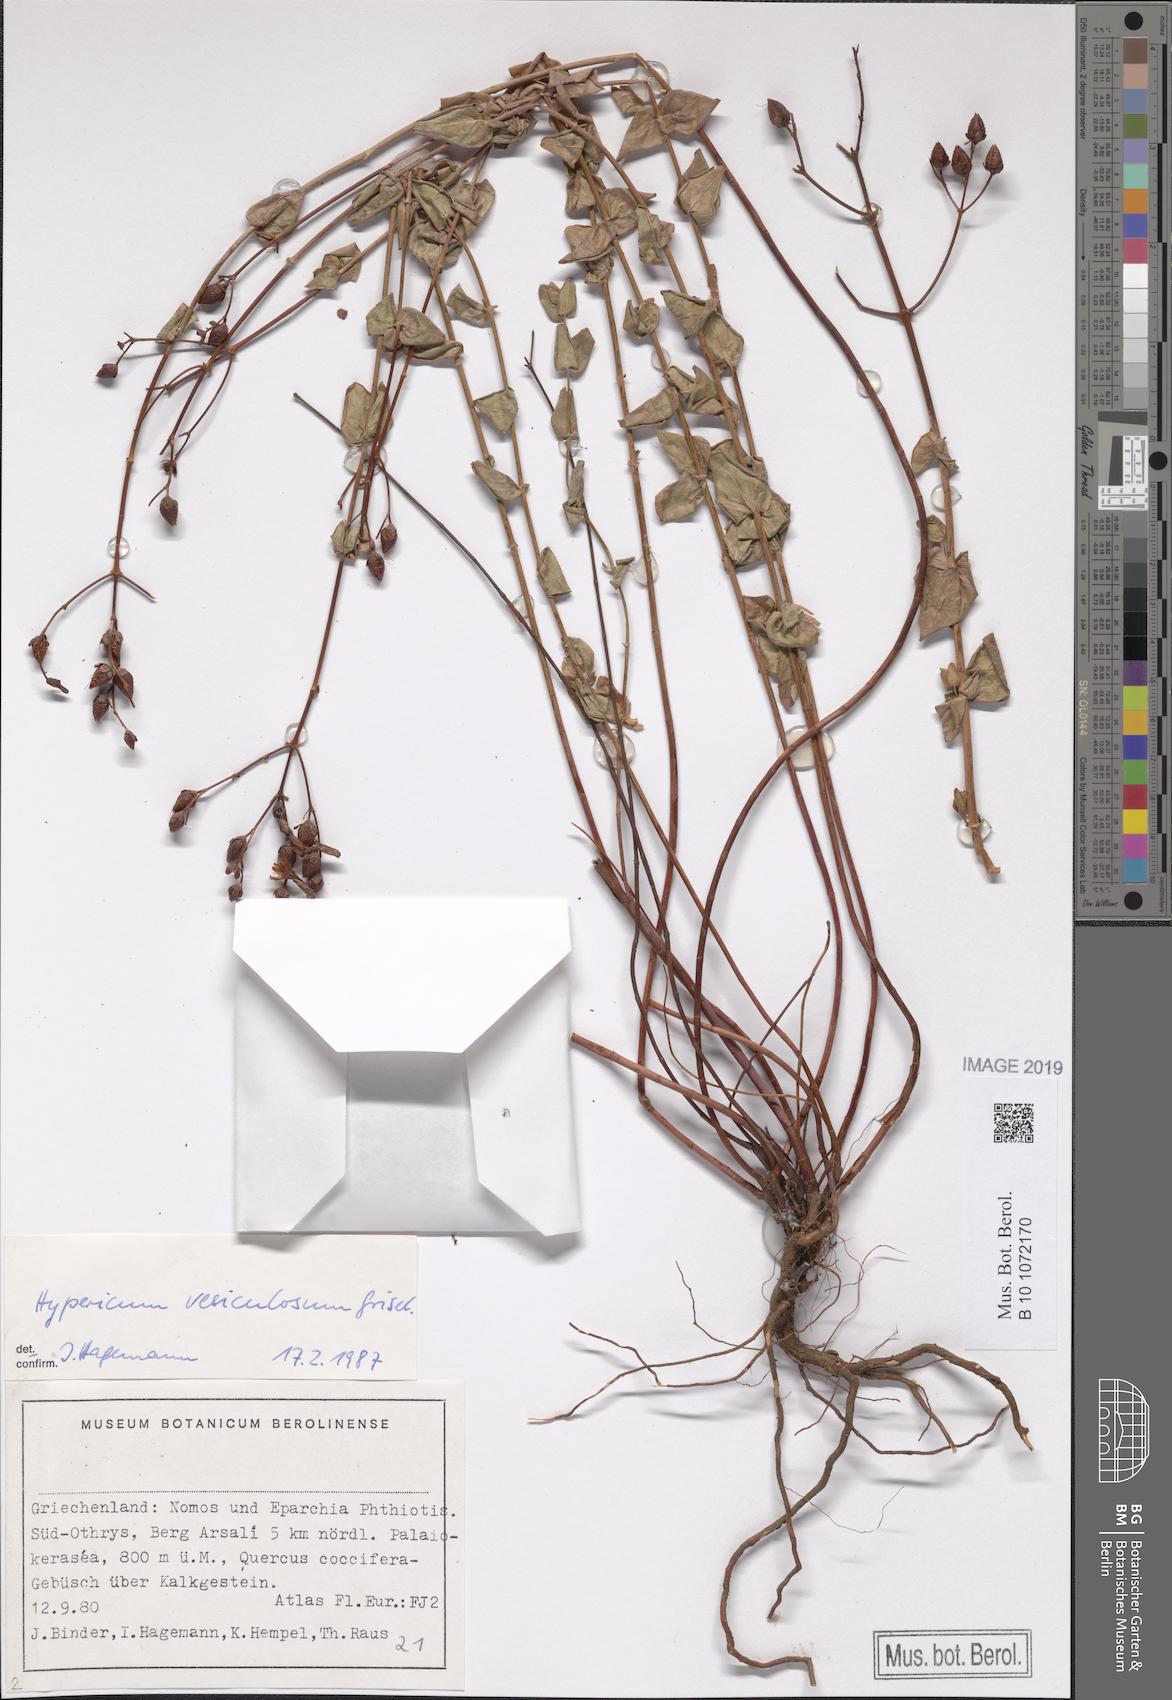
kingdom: Plantae
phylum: Tracheophyta
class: Magnoliopsida
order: Malpighiales
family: Hypericaceae
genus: Hypericum
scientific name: Hypericum vesiculosum
